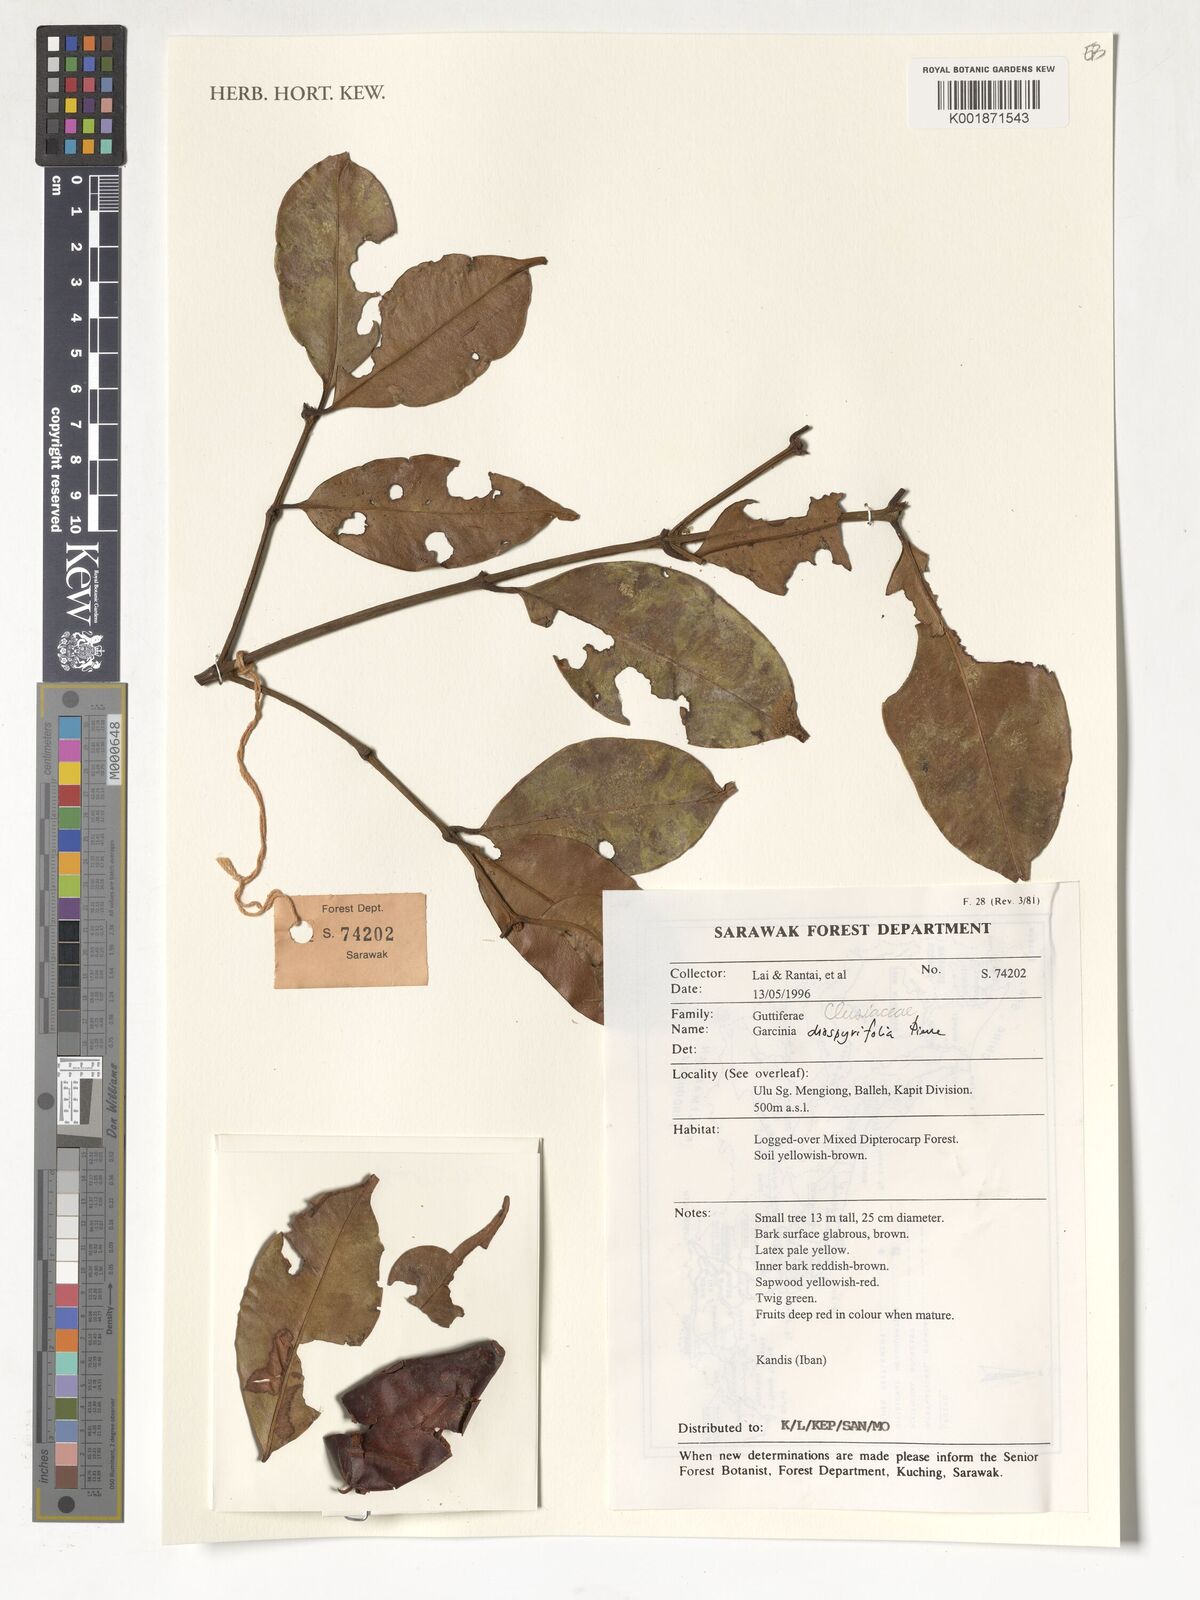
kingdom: Plantae
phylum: Tracheophyta
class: Magnoliopsida
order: Malpighiales
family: Clusiaceae
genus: Garcinia
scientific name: Garcinia diospyrifolia
